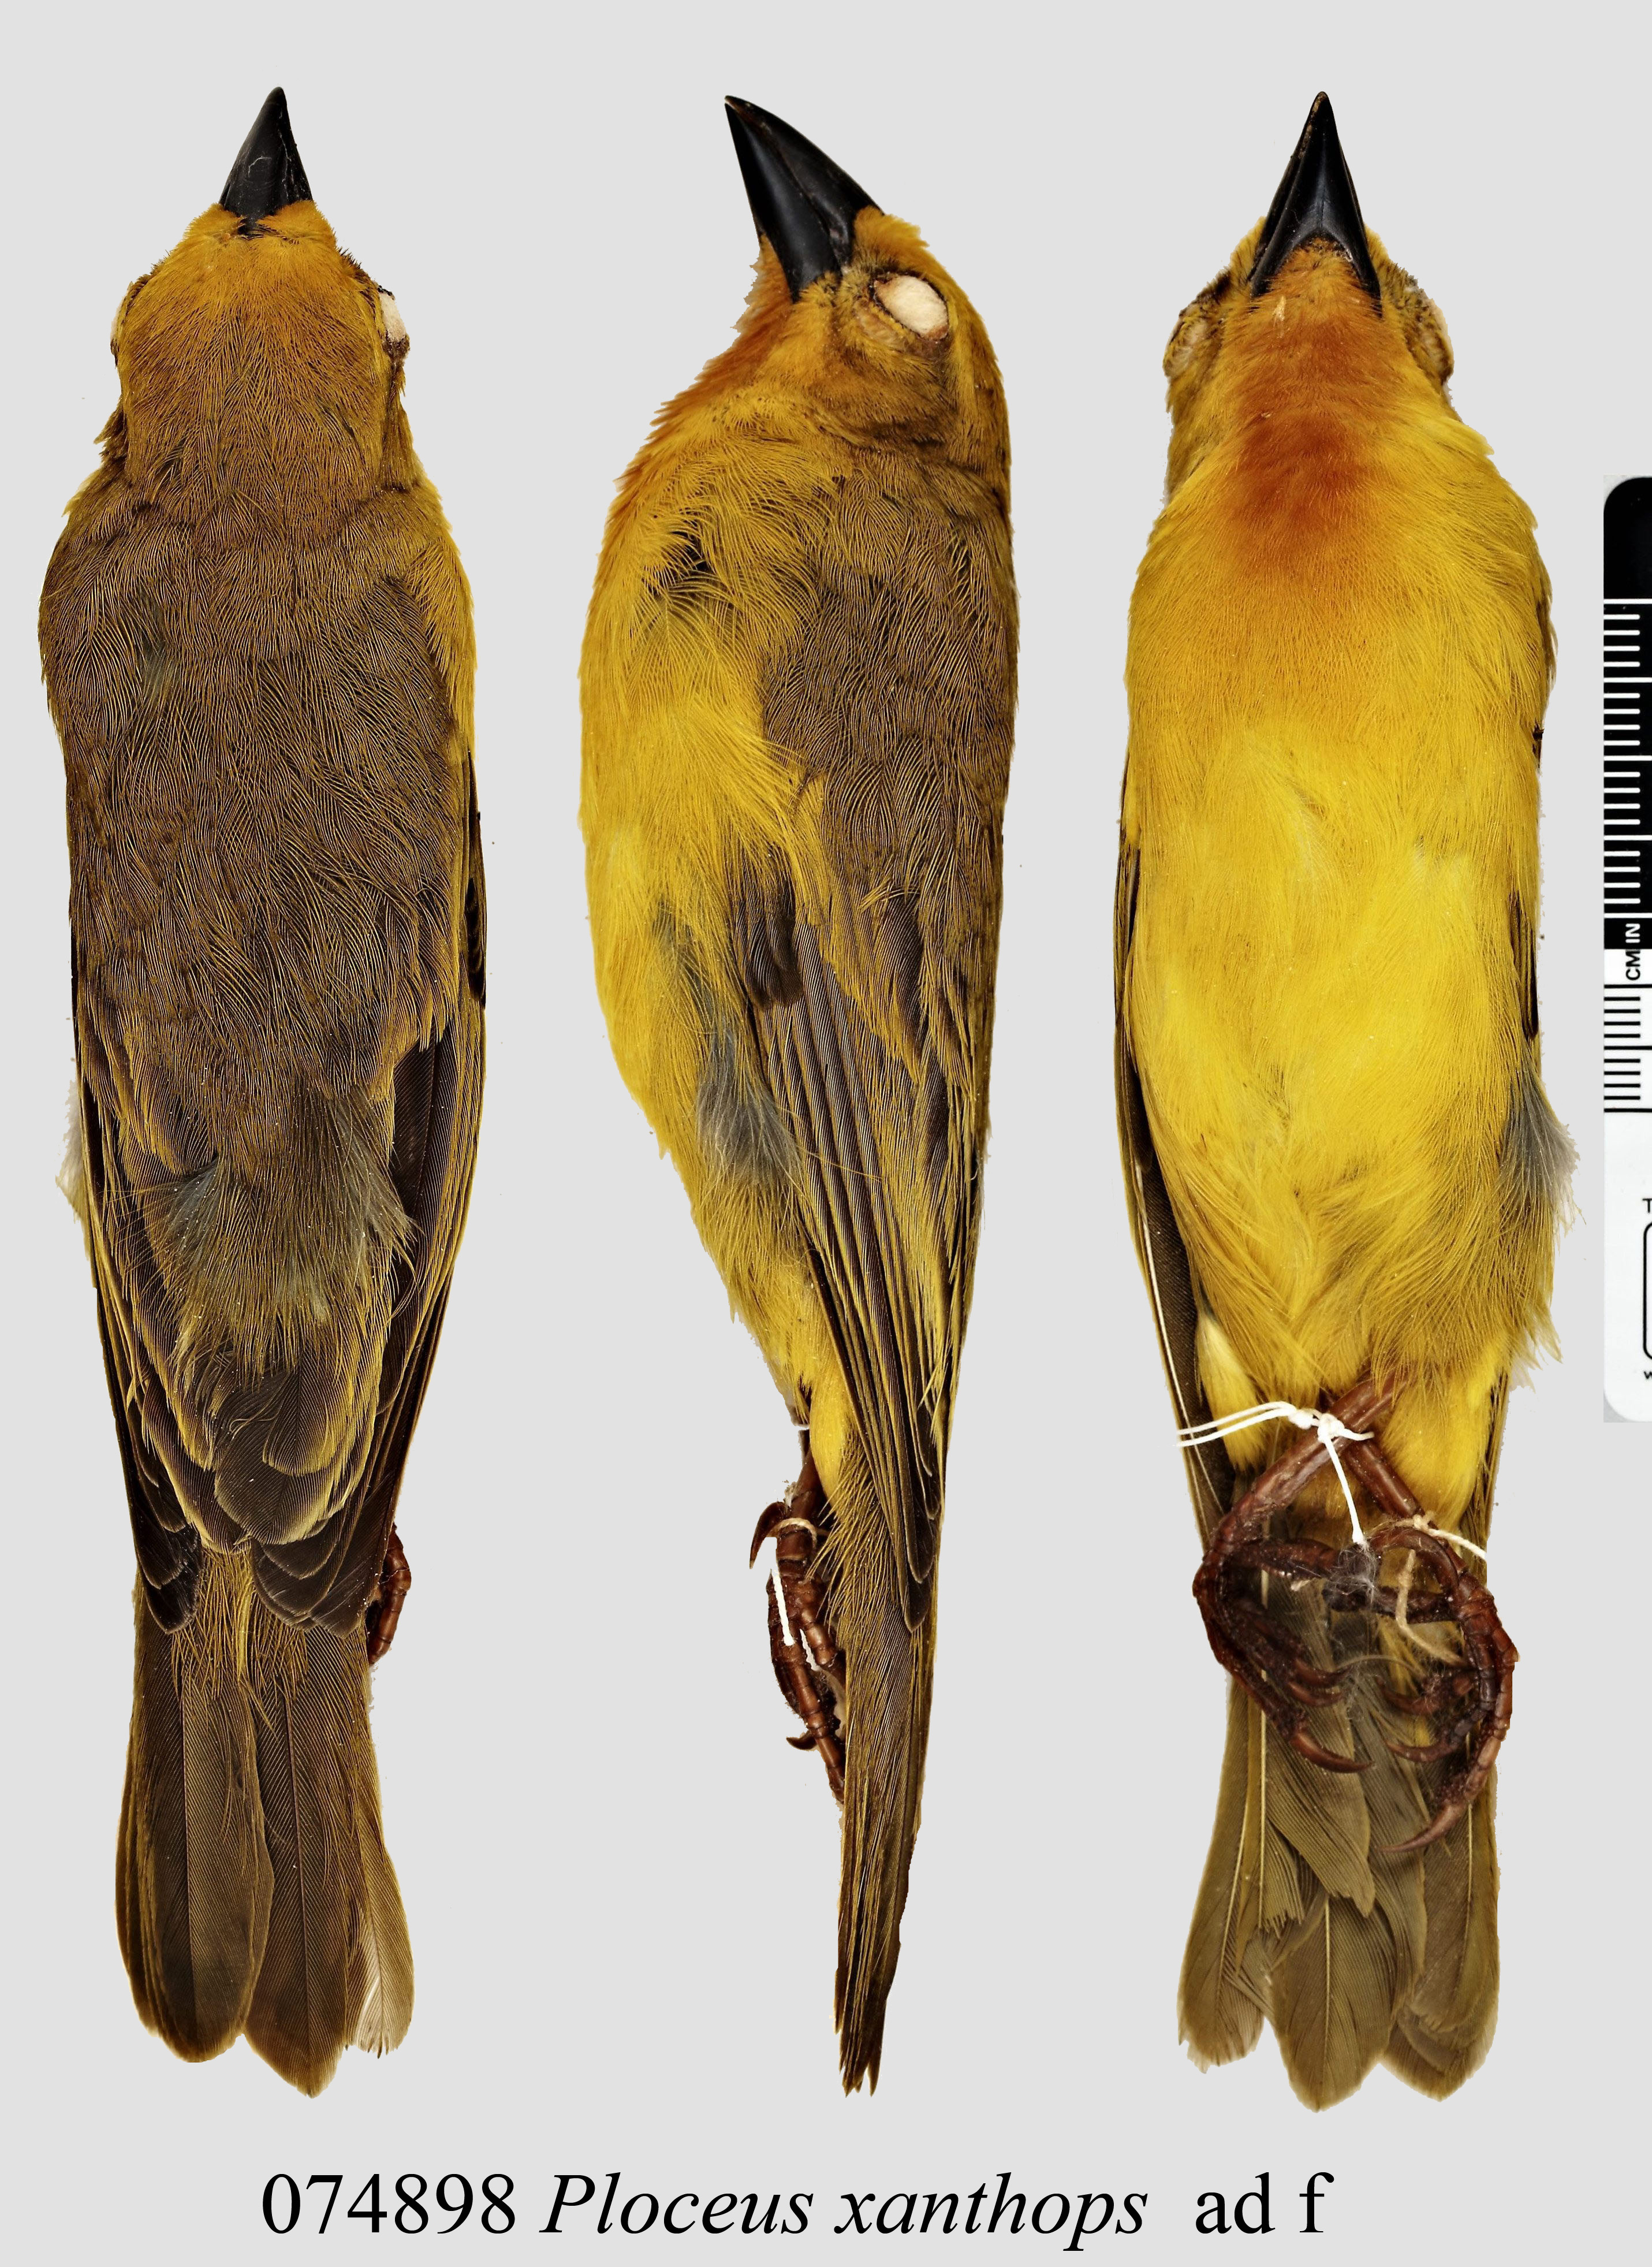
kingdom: Animalia
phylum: Chordata
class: Aves
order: Passeriformes
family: Ploceidae
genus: Ploceus
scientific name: Ploceus xanthops
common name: Holub's golden weaver
